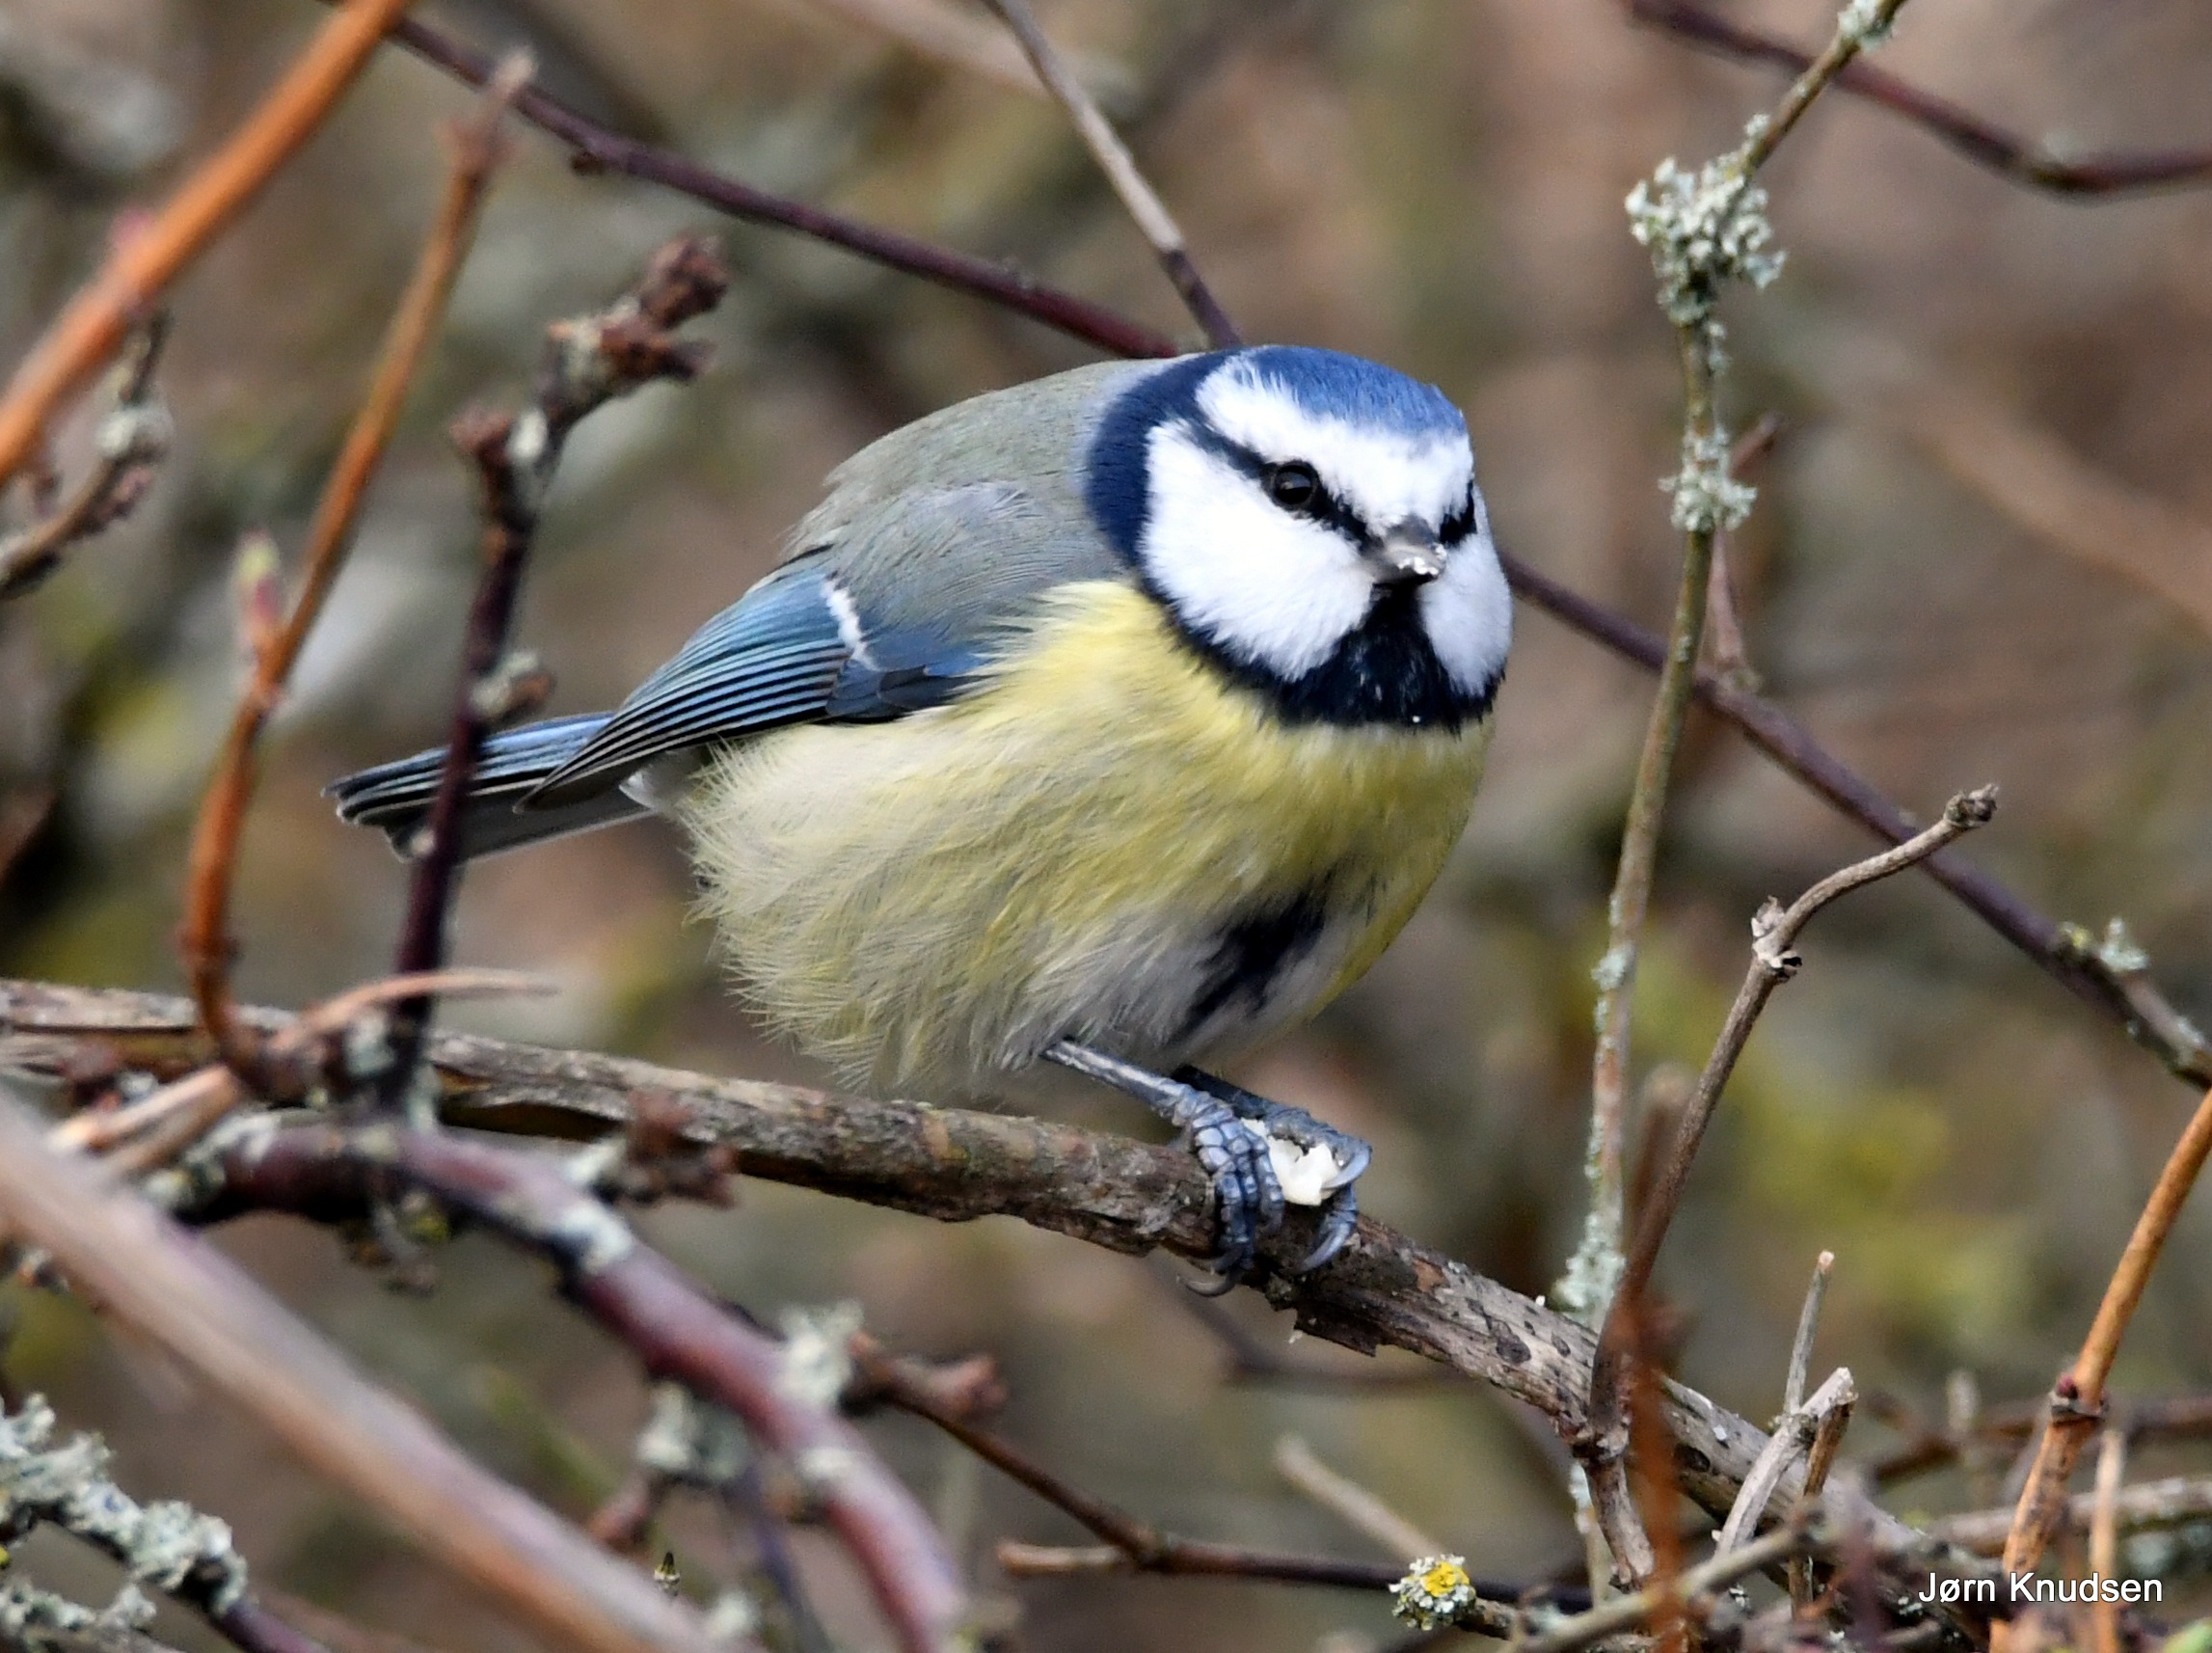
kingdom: Animalia
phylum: Chordata
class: Aves
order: Passeriformes
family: Paridae
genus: Cyanistes
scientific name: Cyanistes caeruleus
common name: Blåmejse
